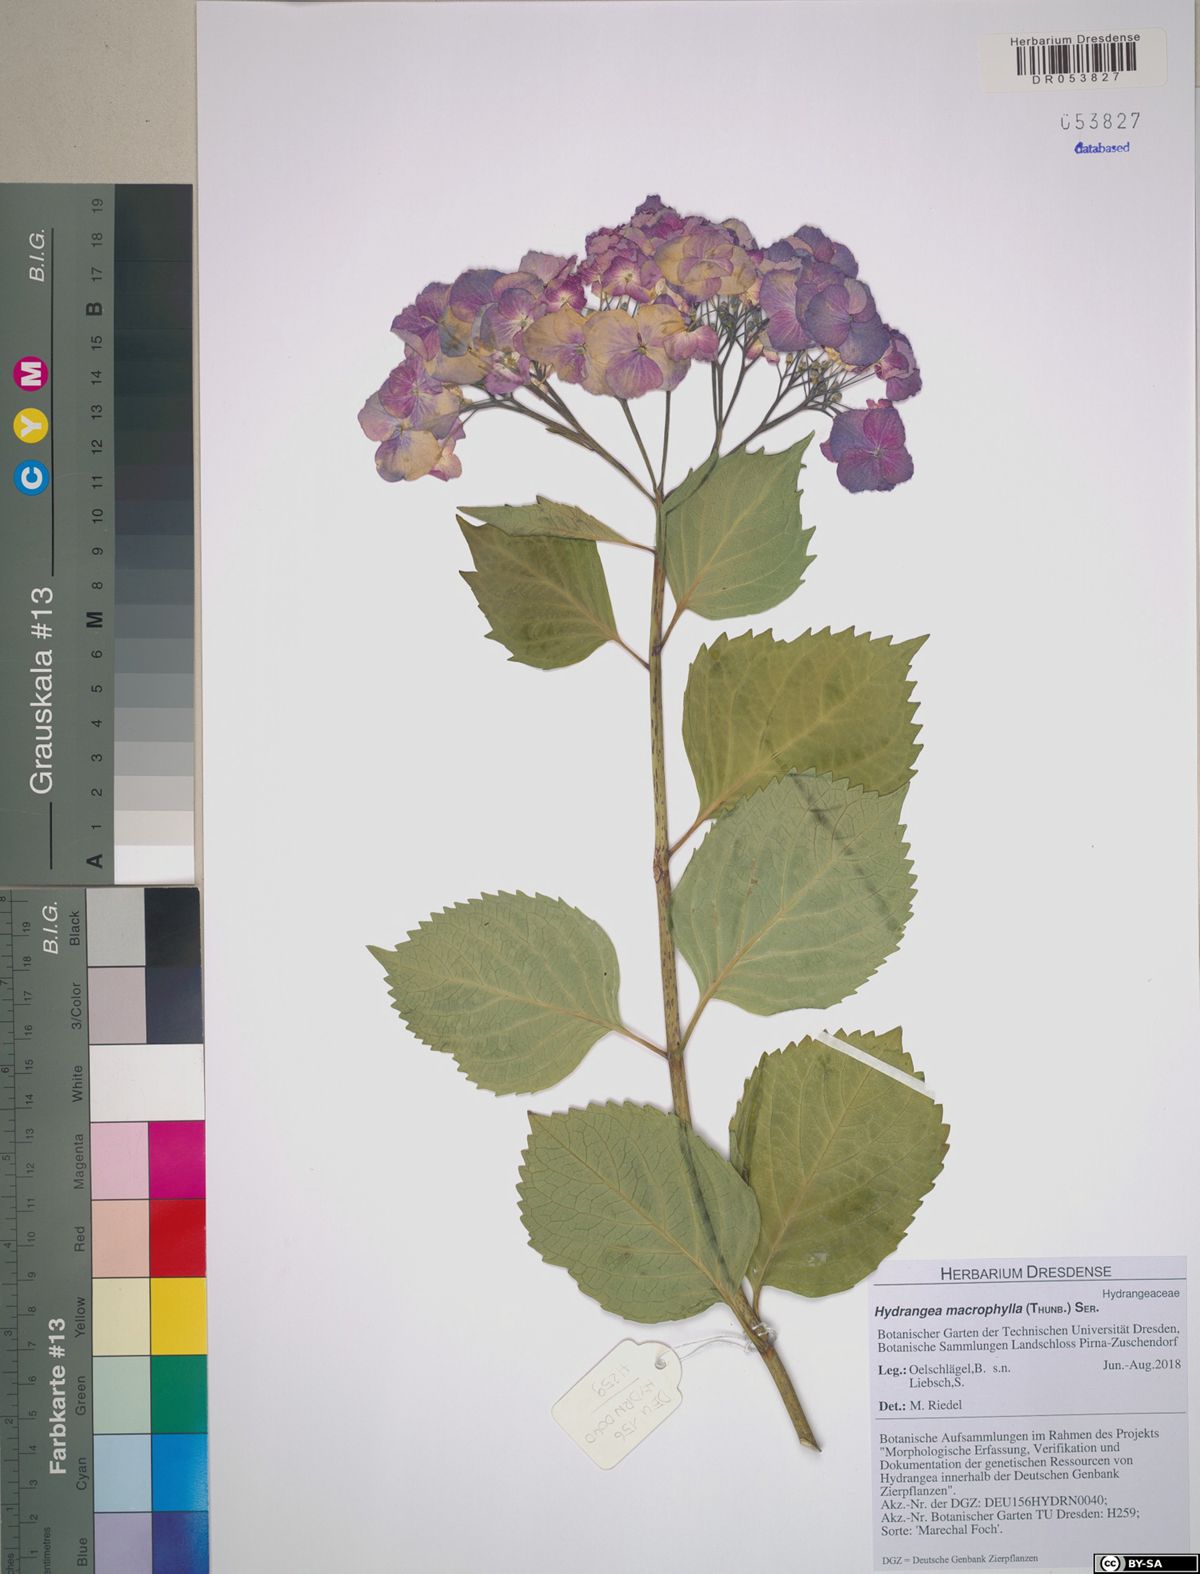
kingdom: Plantae
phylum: Tracheophyta
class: Magnoliopsida
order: Cornales
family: Hydrangeaceae
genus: Hydrangea
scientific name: Hydrangea macrophylla
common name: Hydrangea
